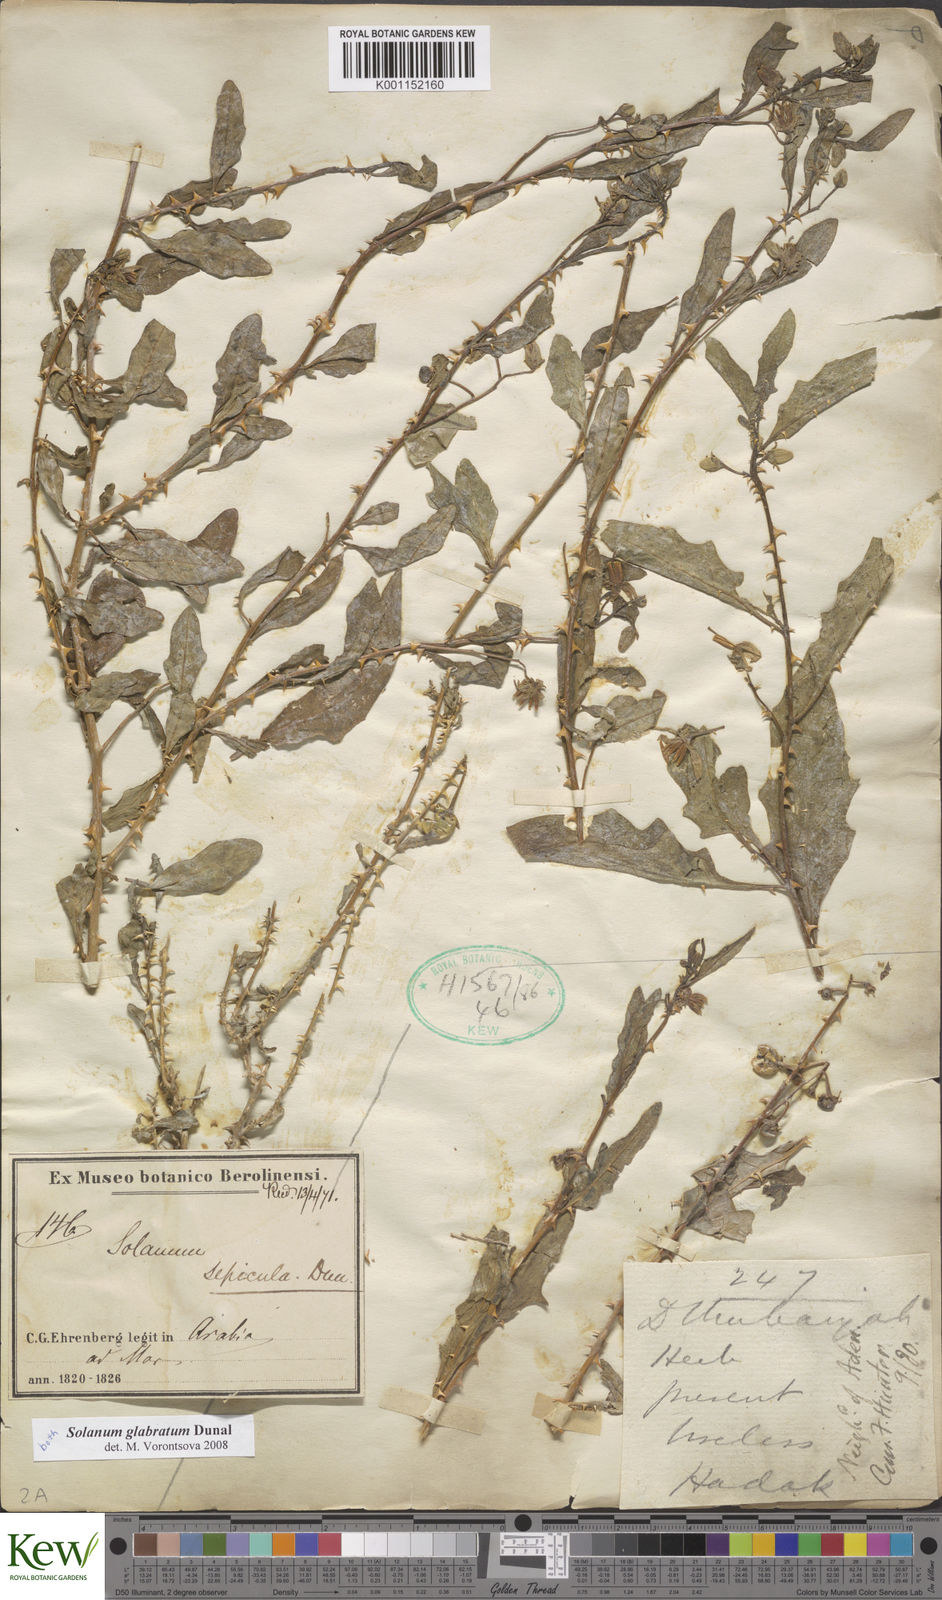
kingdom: Plantae
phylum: Tracheophyta
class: Magnoliopsida
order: Solanales
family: Solanaceae
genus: Solanum
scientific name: Solanum glabratum
